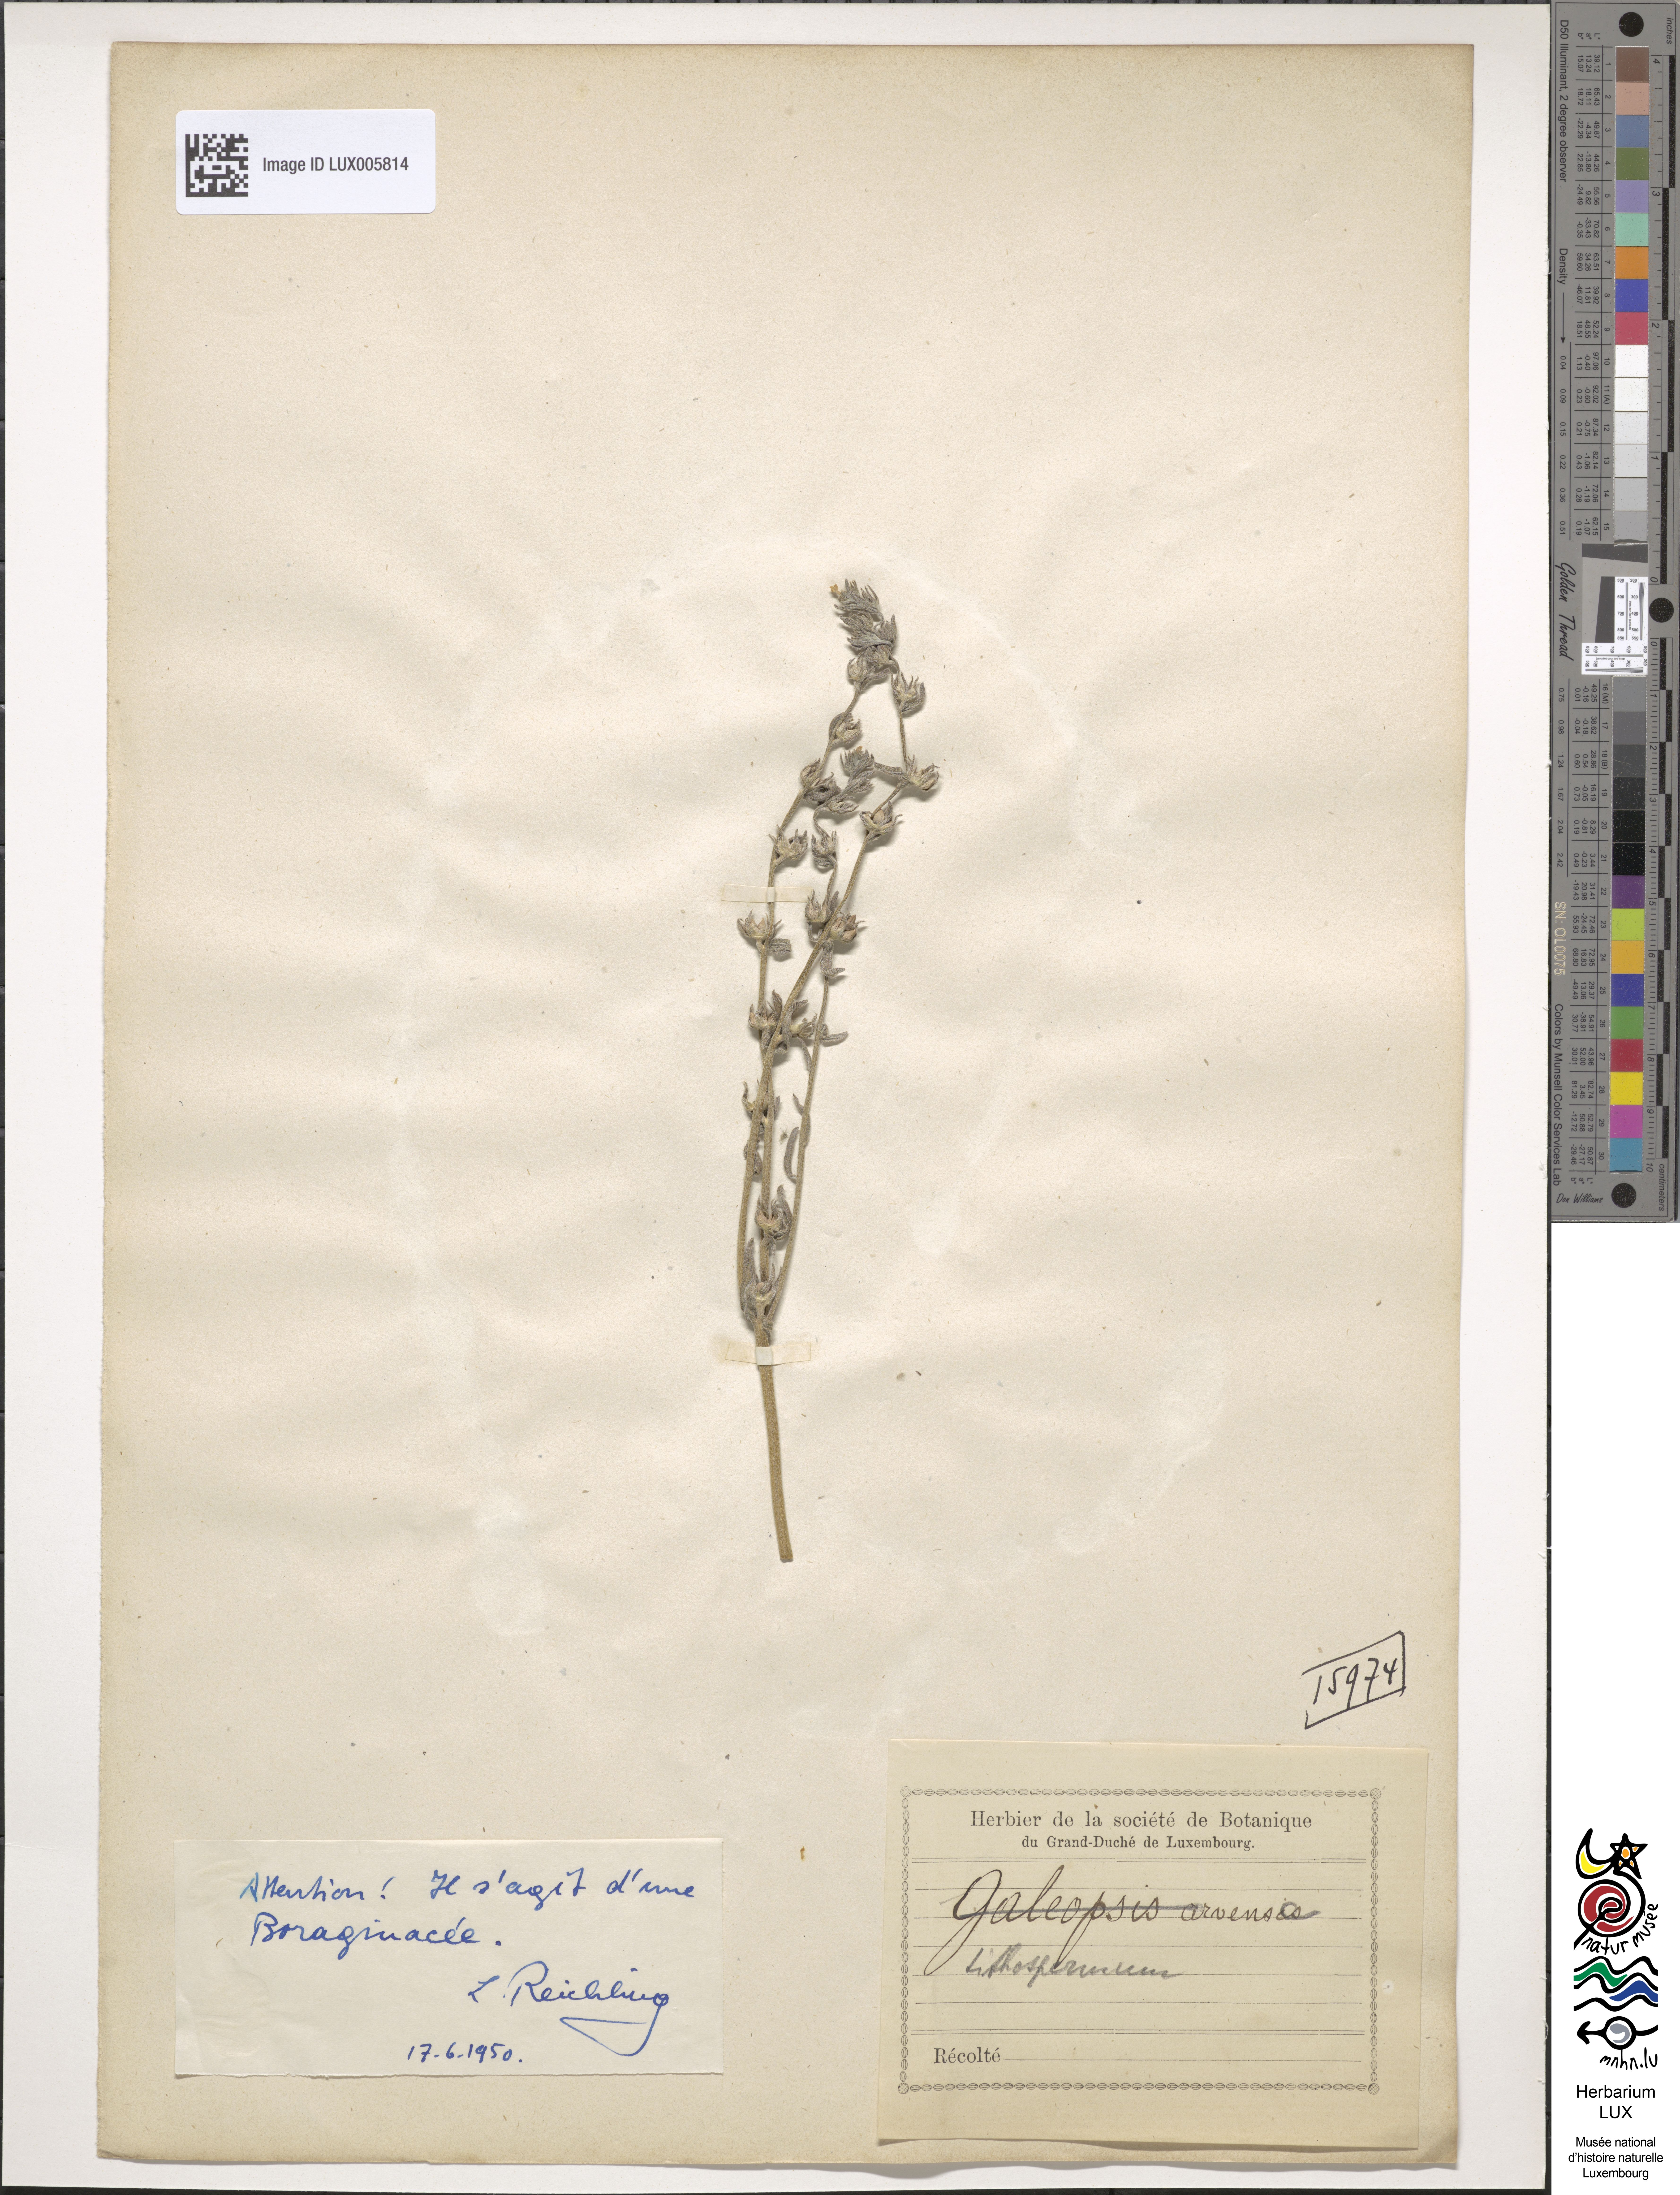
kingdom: Plantae
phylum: Tracheophyta
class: Magnoliopsida
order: Boraginales
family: Boraginaceae
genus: Buglossoides
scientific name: Buglossoides arvensis
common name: Corn gromwell
